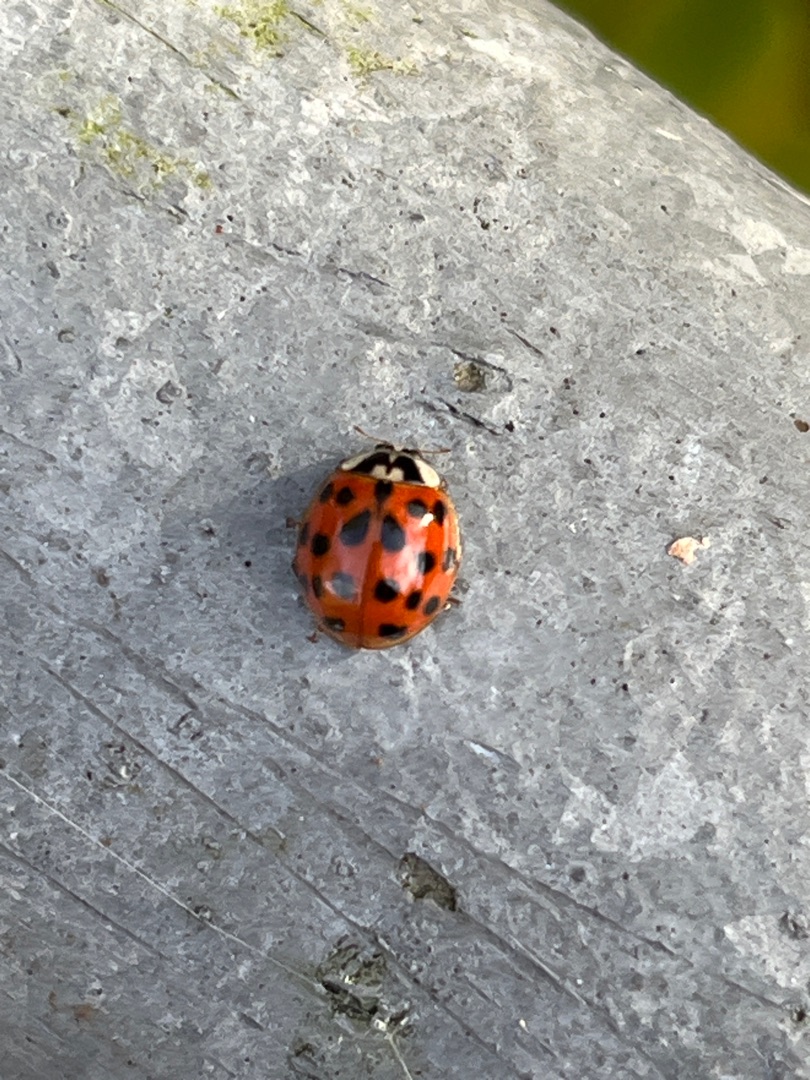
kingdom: Animalia
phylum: Arthropoda
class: Insecta
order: Coleoptera
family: Coccinellidae
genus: Harmonia
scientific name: Harmonia axyridis
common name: Harlekinmariehøne
